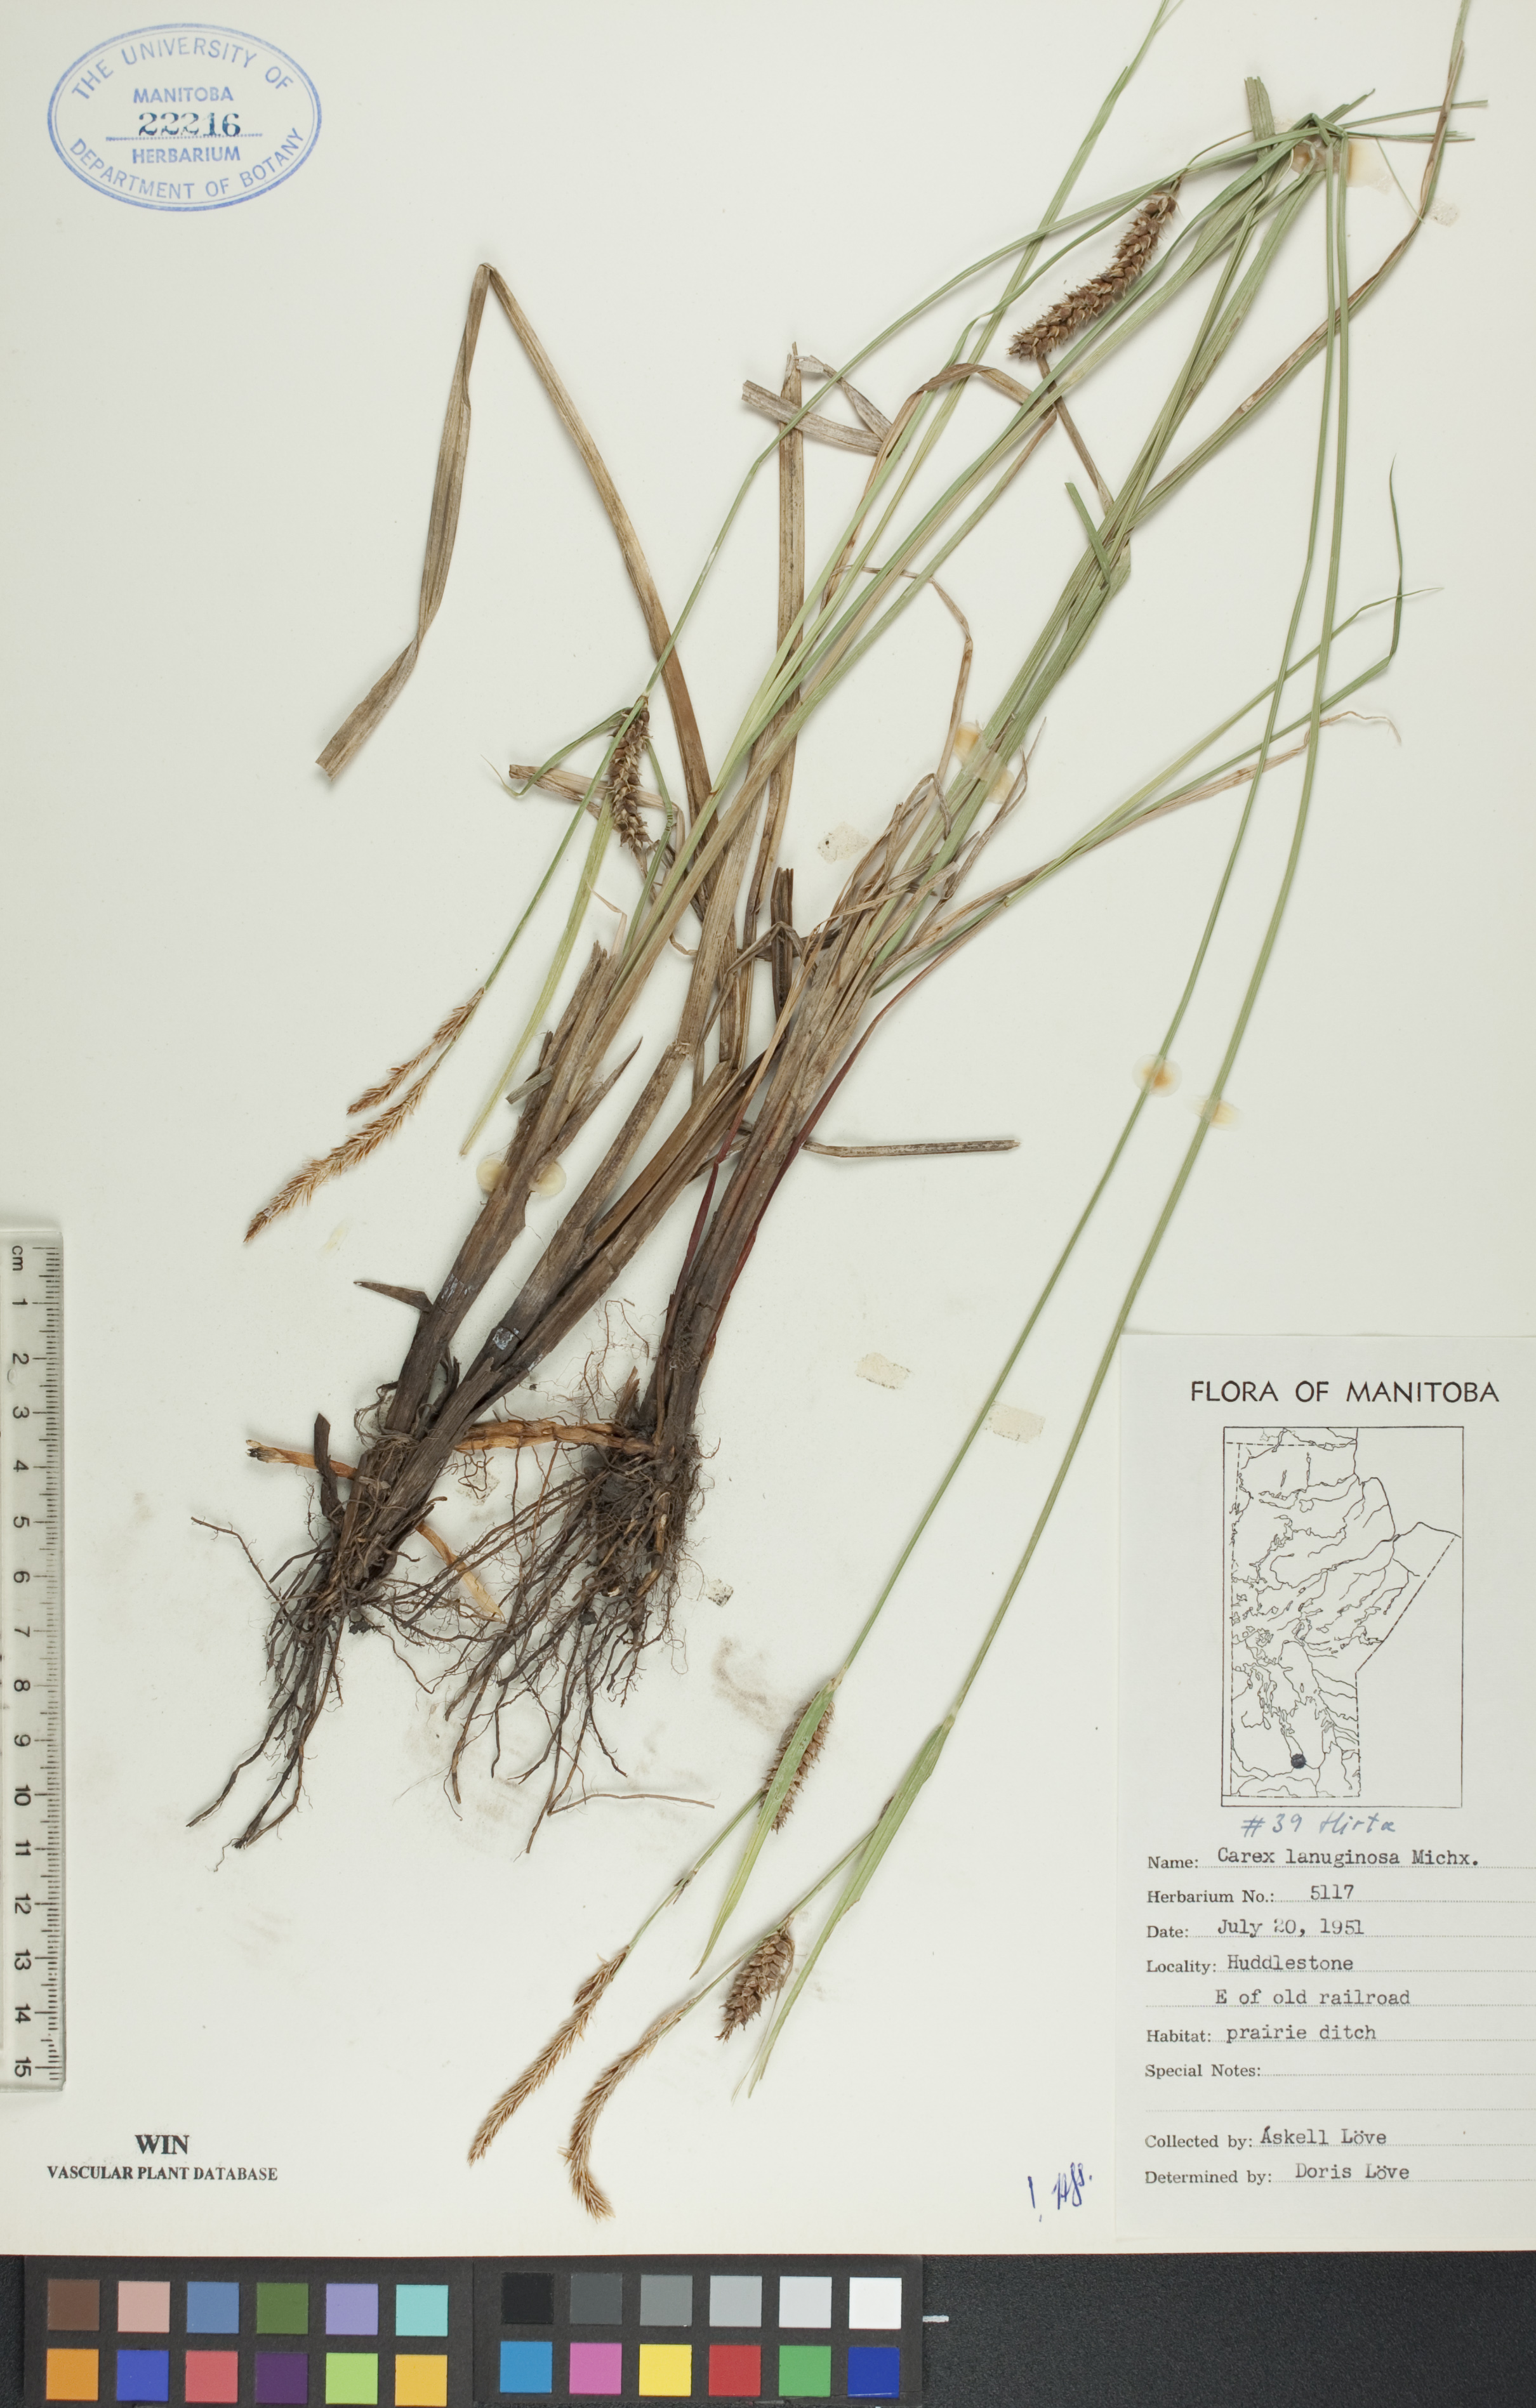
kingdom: Plantae
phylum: Tracheophyta
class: Liliopsida
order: Poales
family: Cyperaceae
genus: Carex
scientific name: Carex lasiocarpa
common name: Slender sedge
